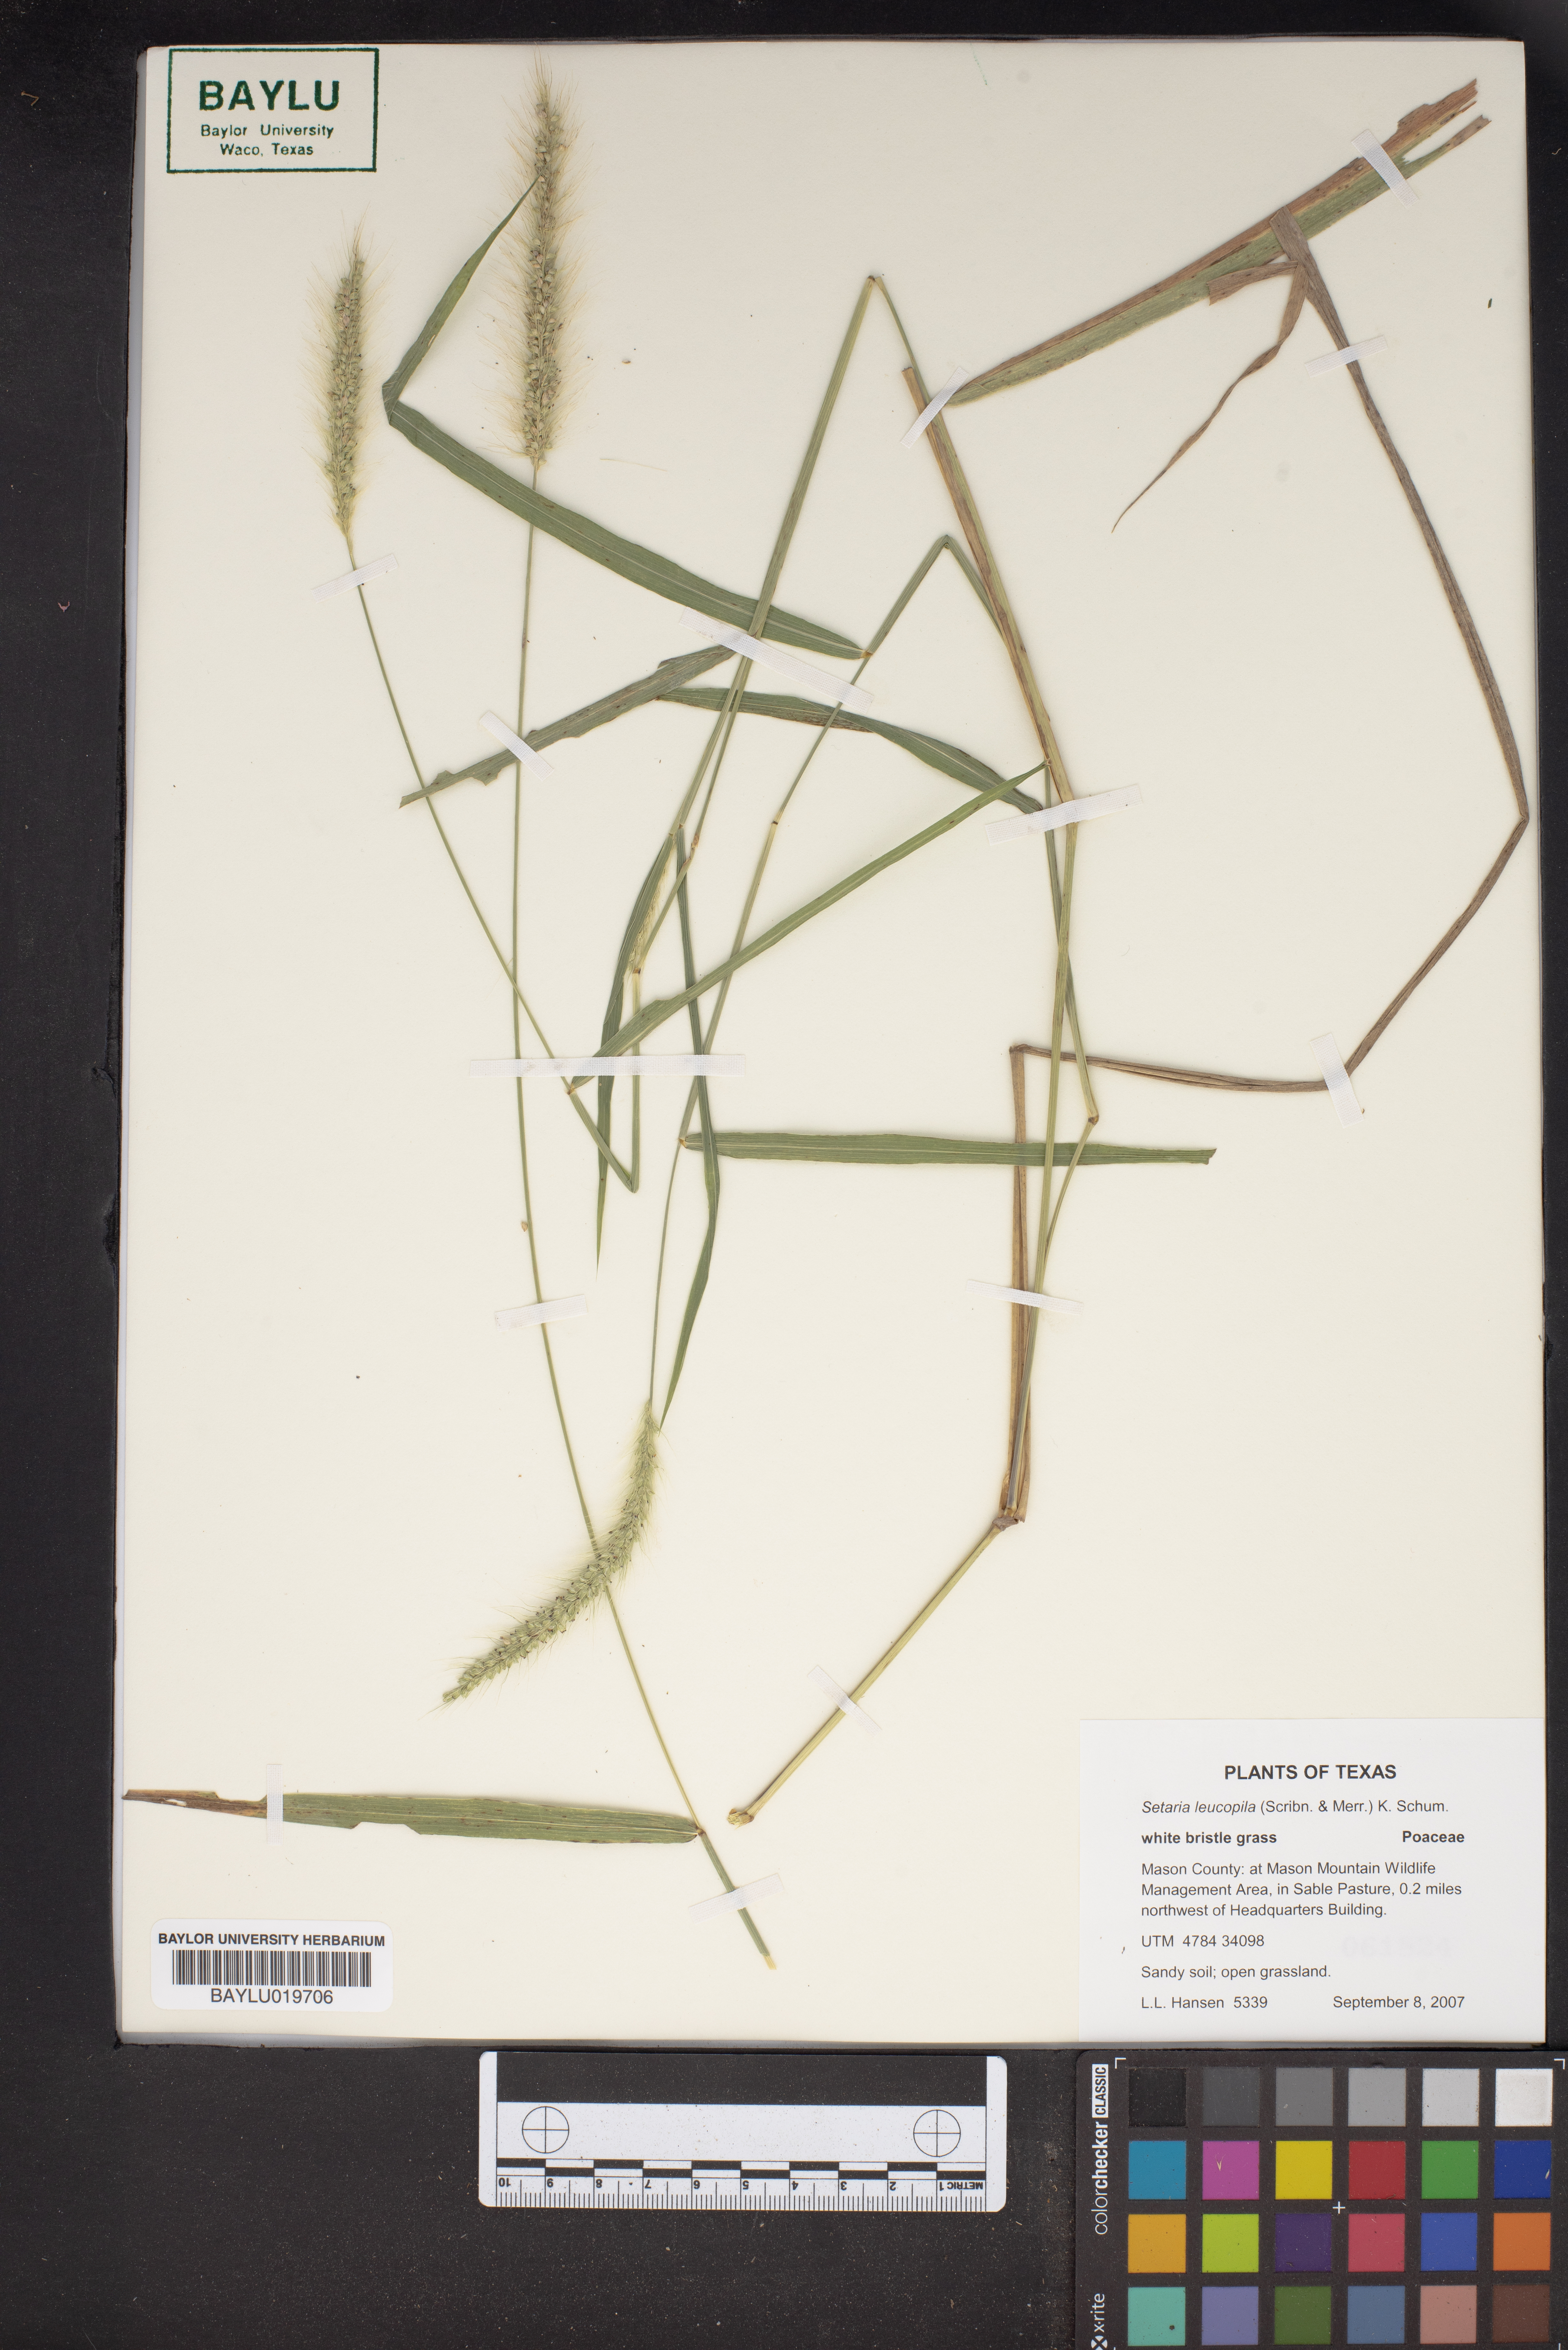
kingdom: Plantae
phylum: Tracheophyta
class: Liliopsida
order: Poales
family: Poaceae
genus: Setaria
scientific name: Setaria leucopila
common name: Plains bristle grass
